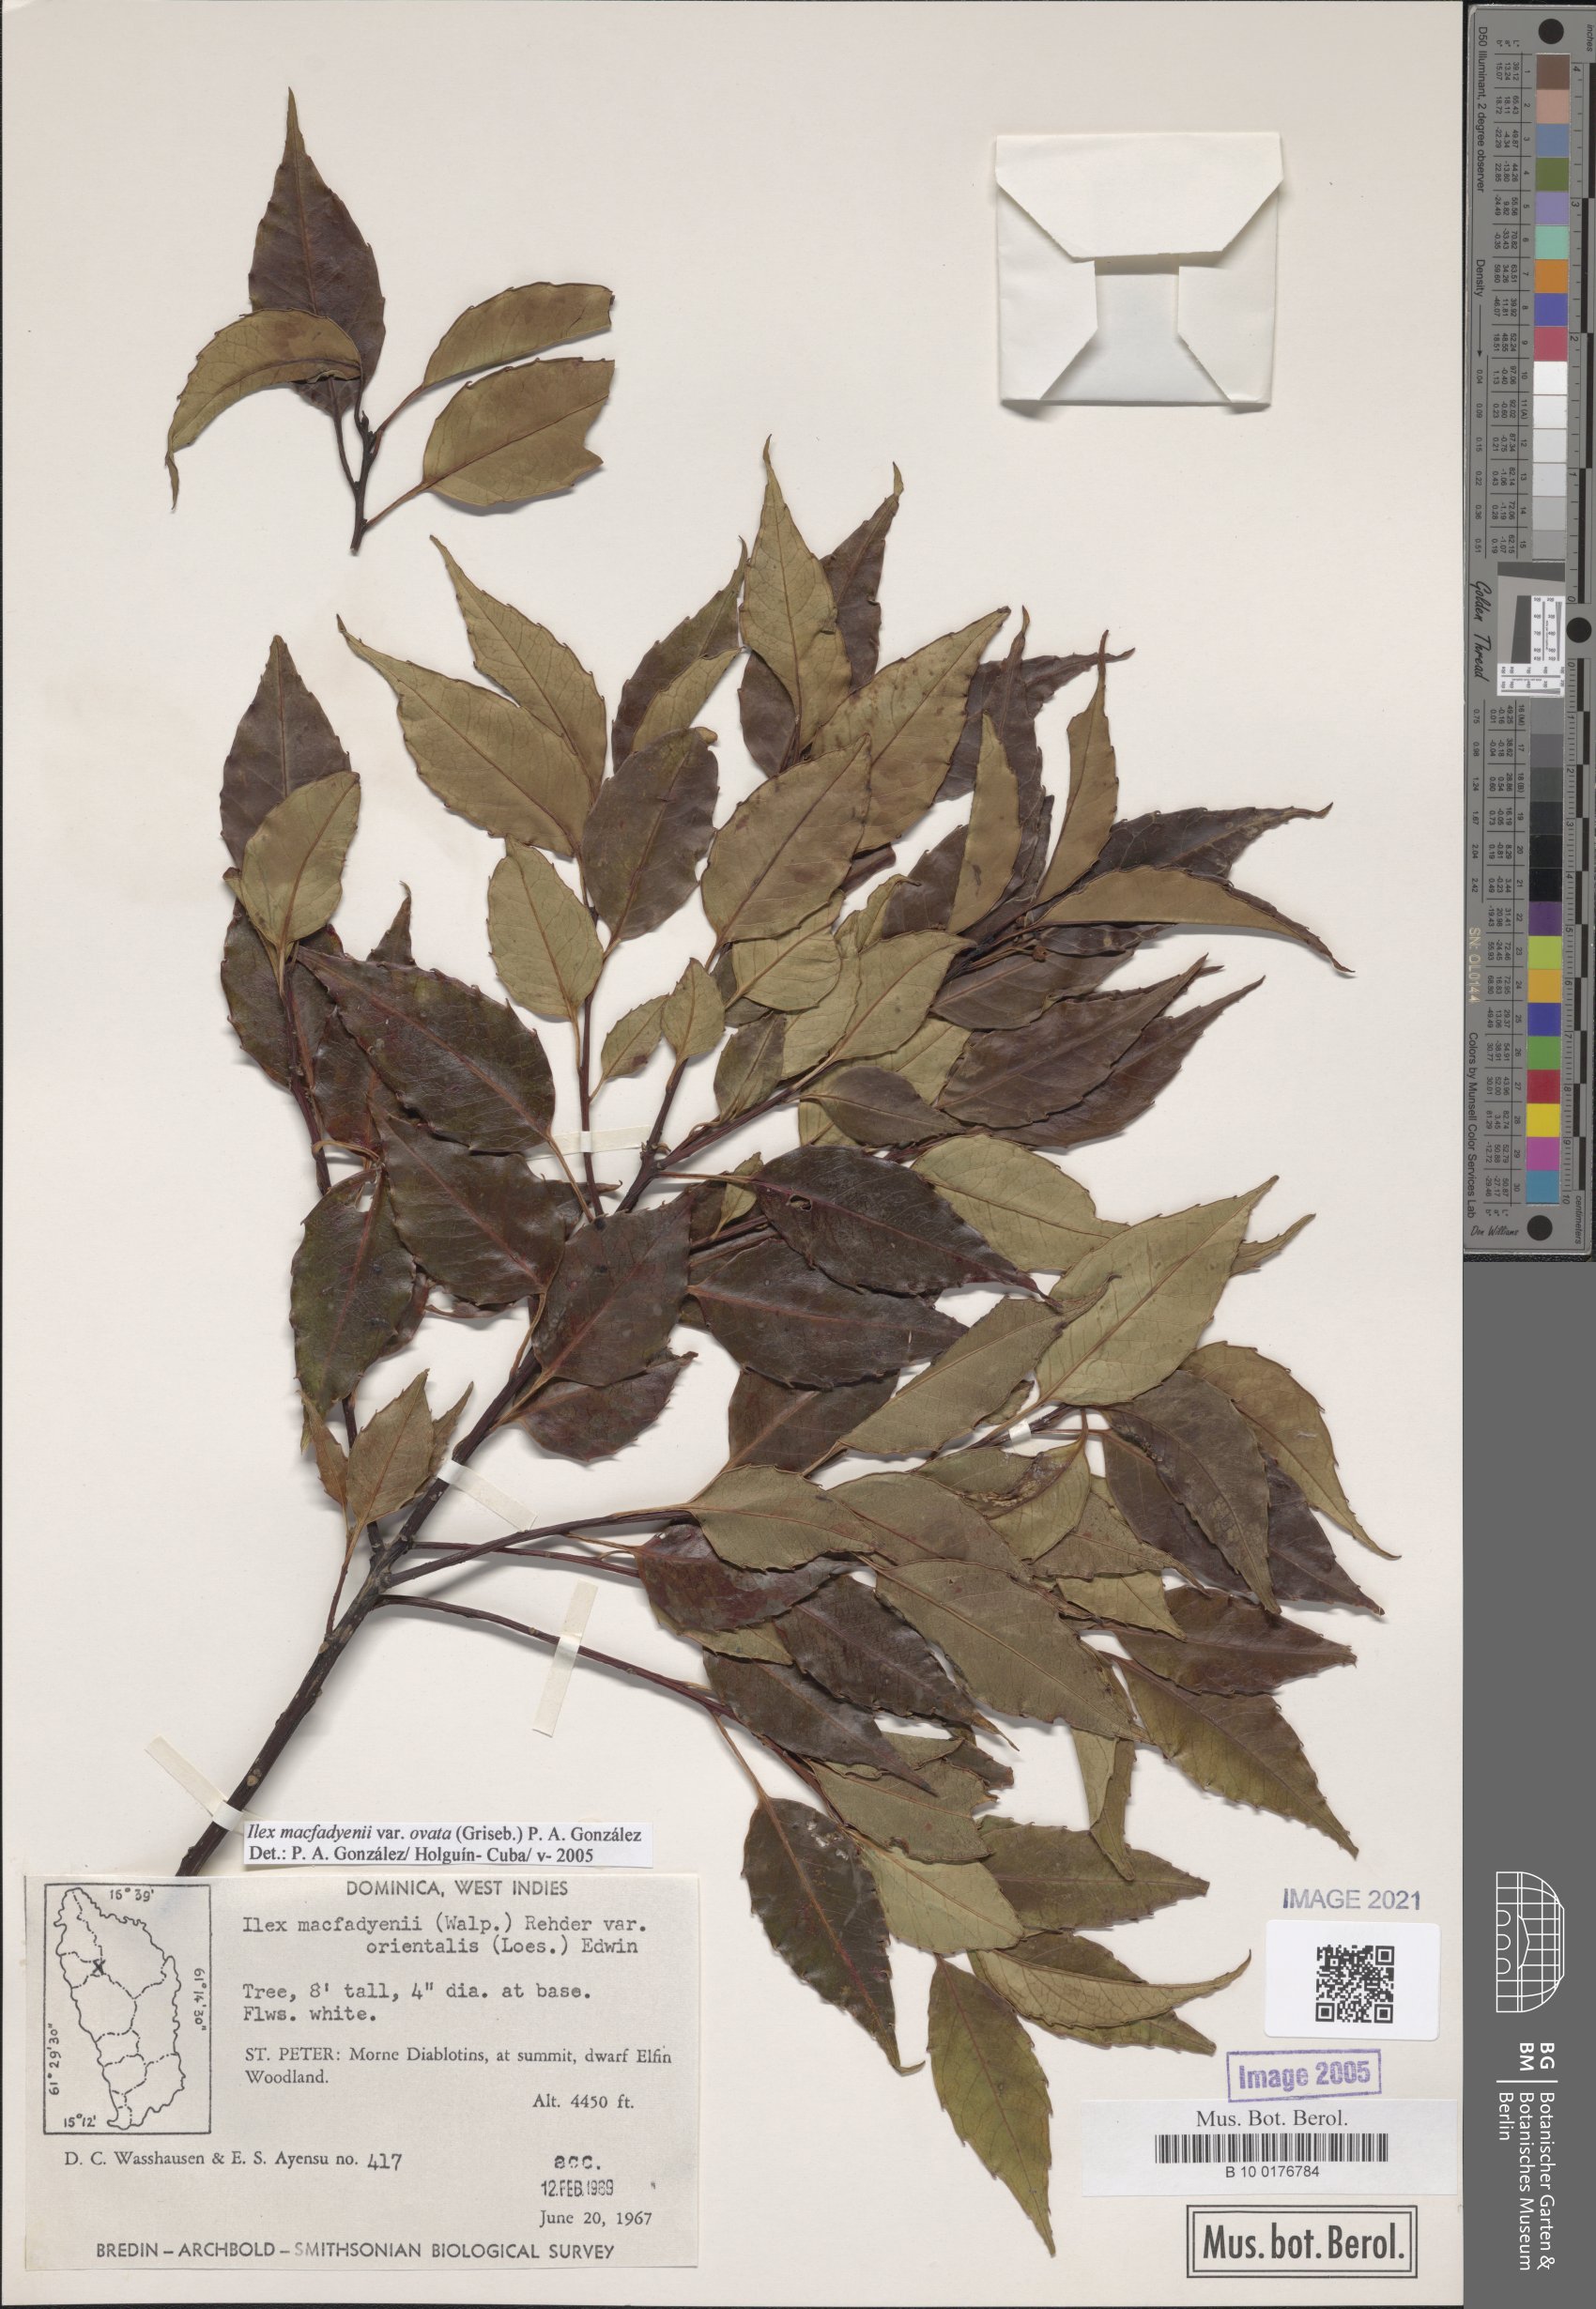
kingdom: Plantae
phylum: Tracheophyta
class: Magnoliopsida
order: Aquifoliales
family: Aquifoliaceae
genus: Ilex
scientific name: Ilex macfadyenii
